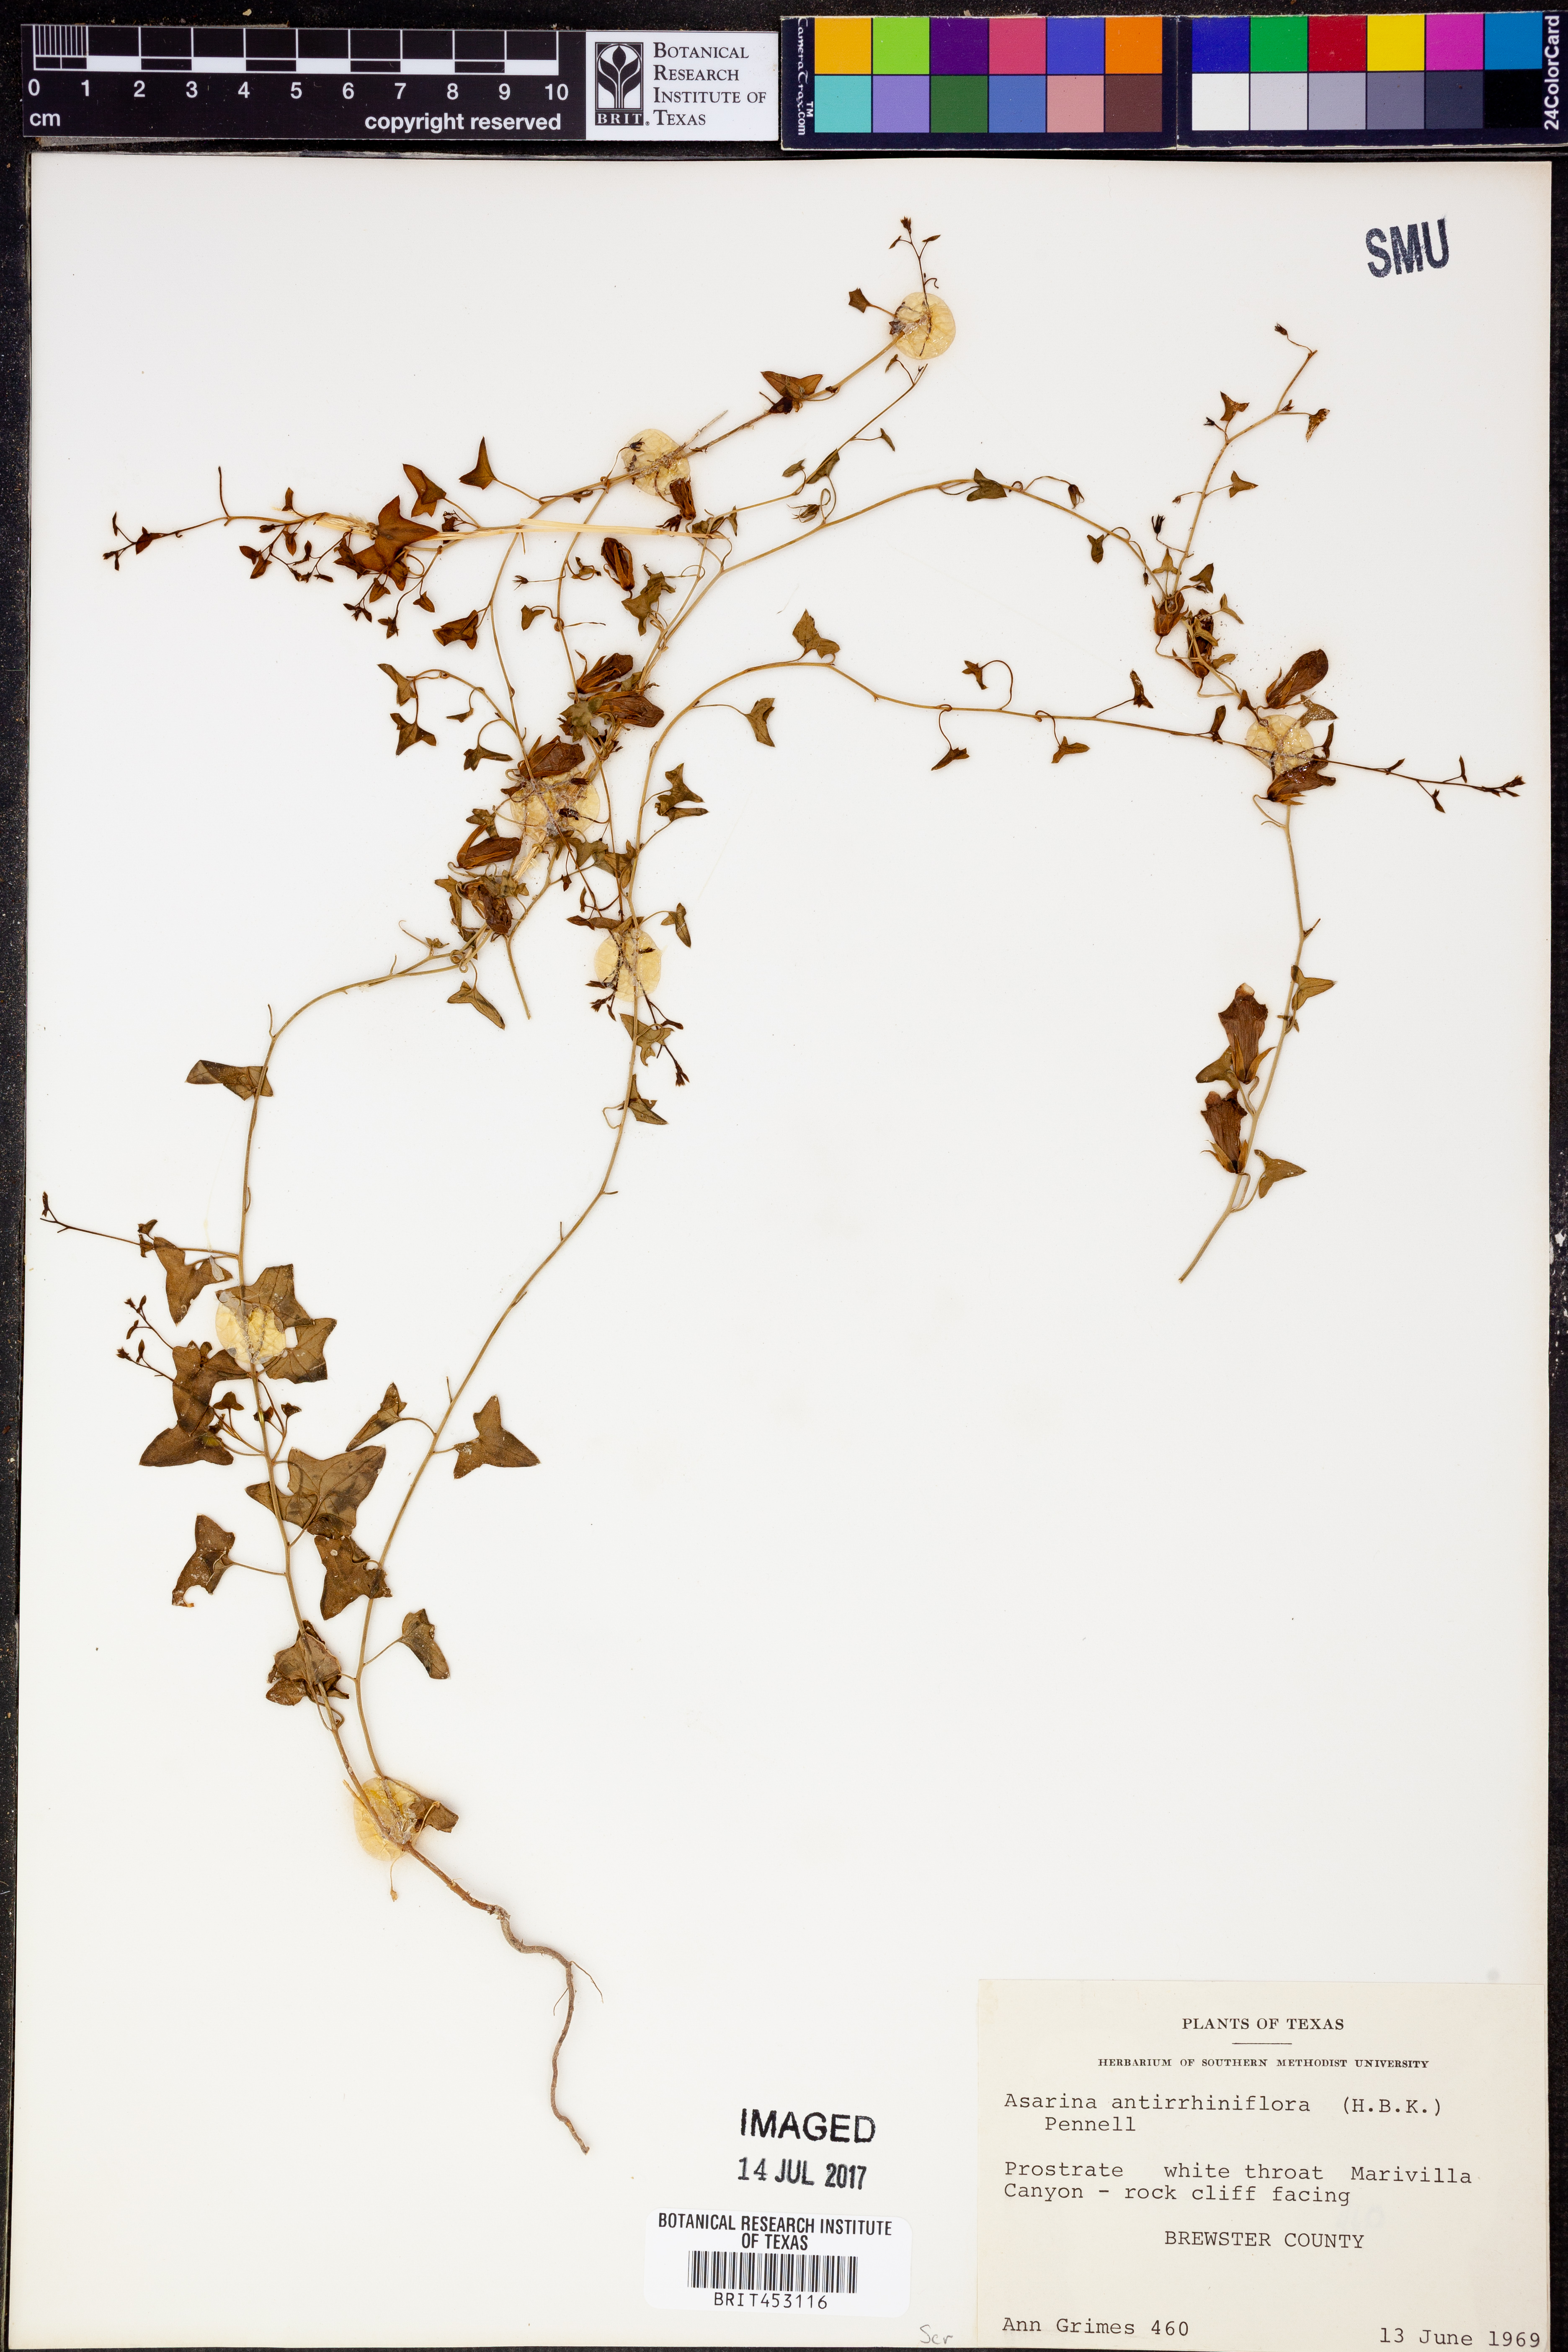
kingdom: Plantae
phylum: Tracheophyta
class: Magnoliopsida
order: Lamiales
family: Plantaginaceae
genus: Maurandella
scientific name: Maurandella antirrhiniflora
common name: Violet twining-snapdragon
